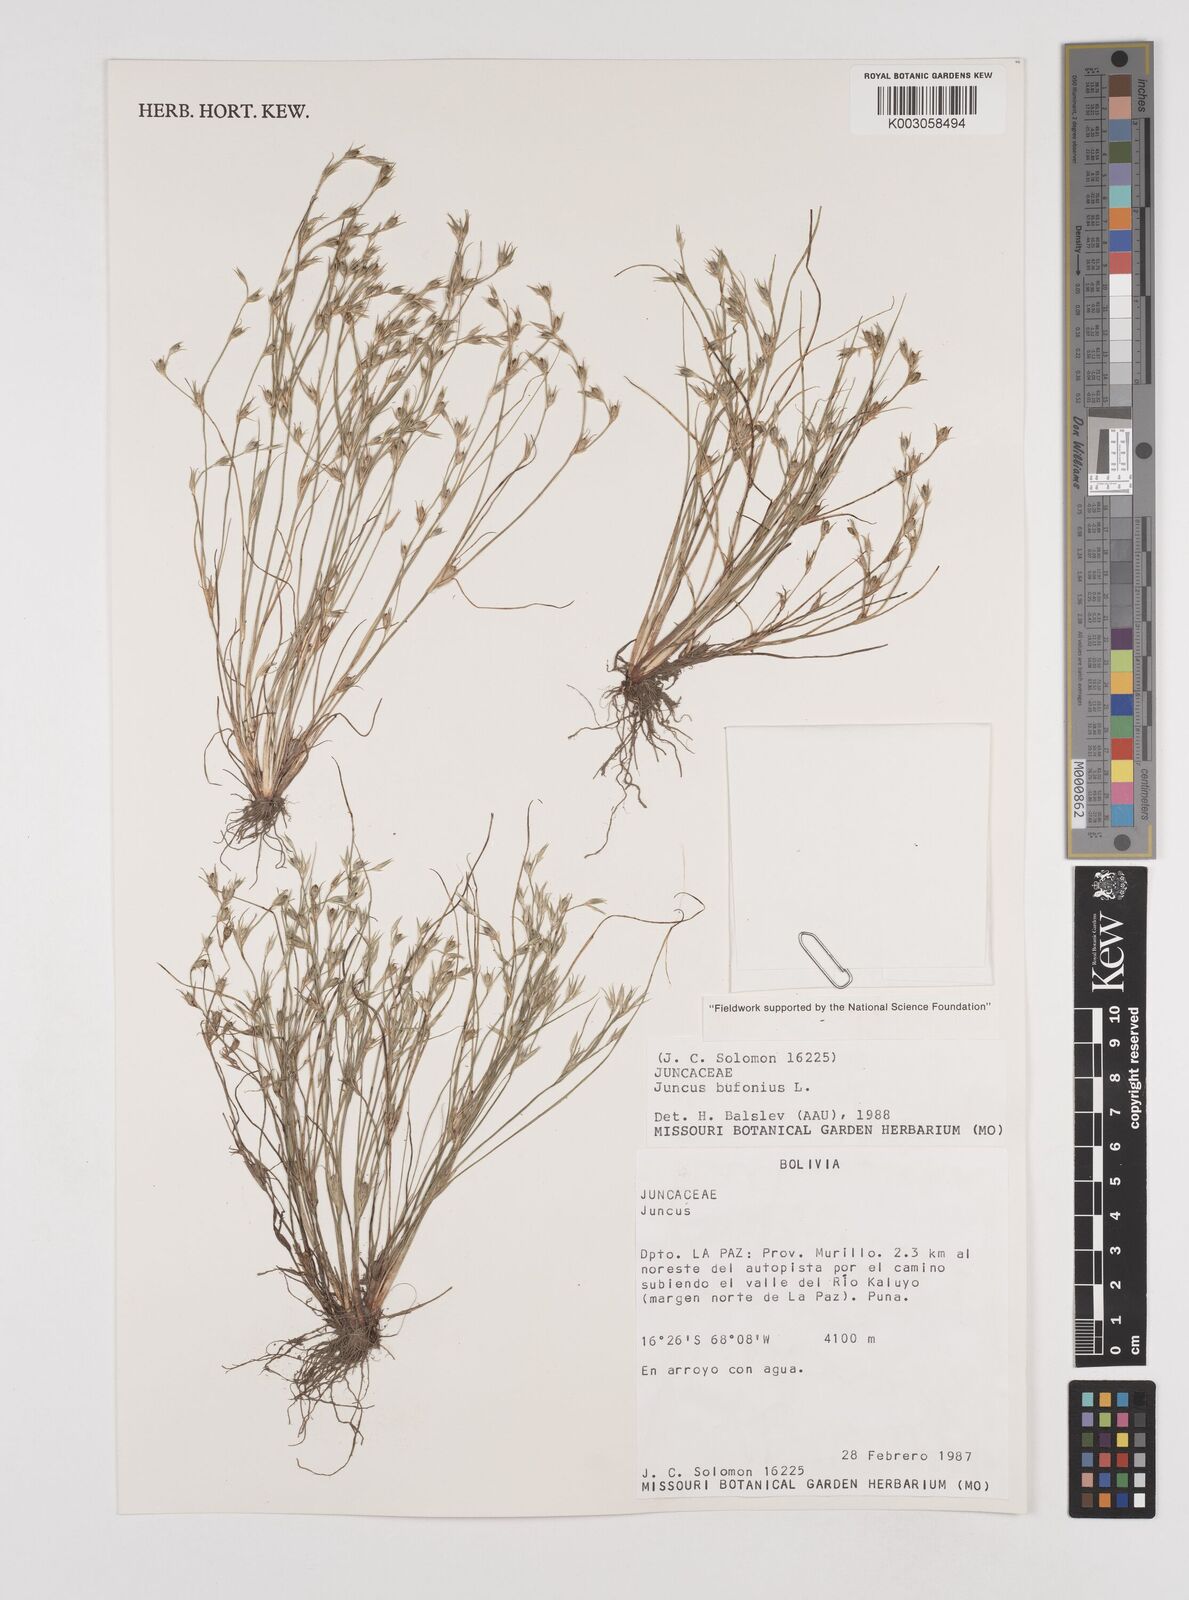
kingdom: Plantae
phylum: Tracheophyta
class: Liliopsida
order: Poales
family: Juncaceae
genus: Juncus
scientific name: Juncus bufonius
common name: Toad rush
